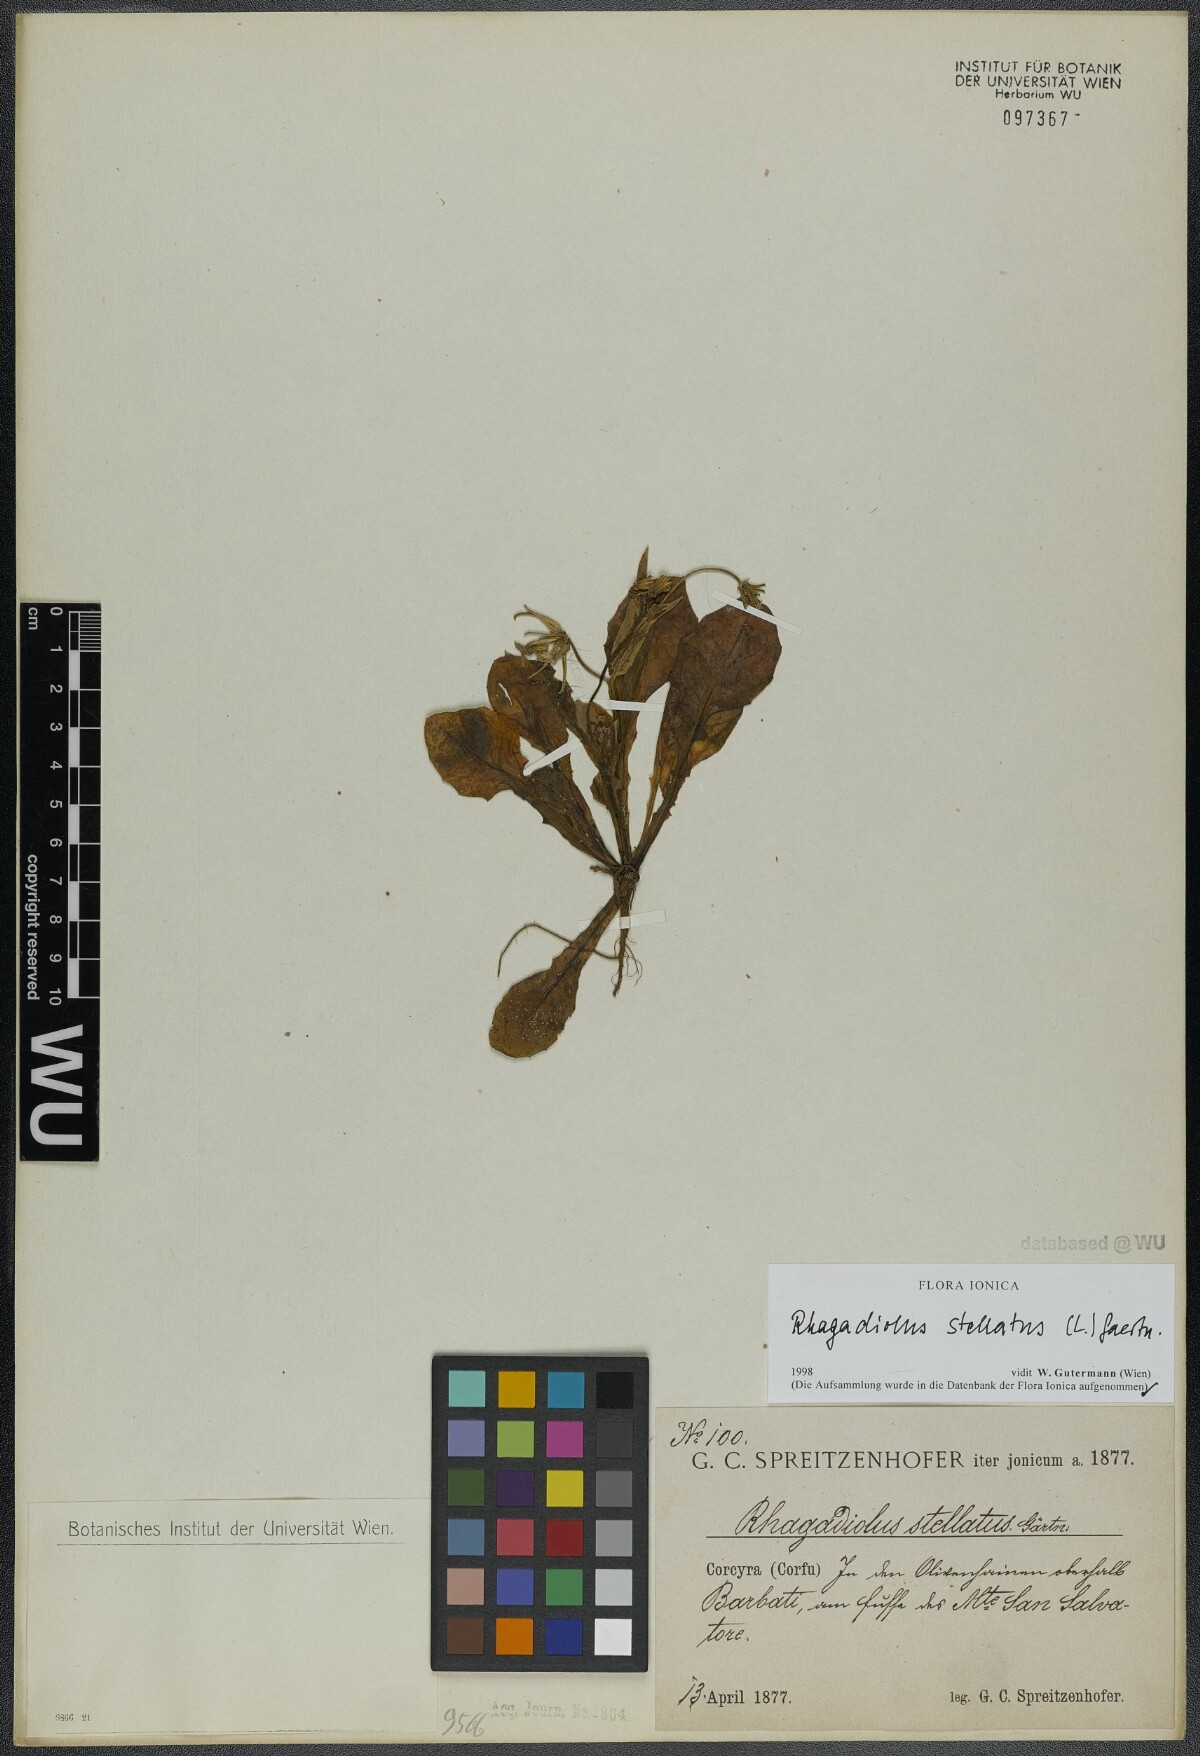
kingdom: Plantae
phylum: Tracheophyta
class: Magnoliopsida
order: Asterales
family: Asteraceae
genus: Rhagadiolus
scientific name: Rhagadiolus stellatus
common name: Star hawkbit
